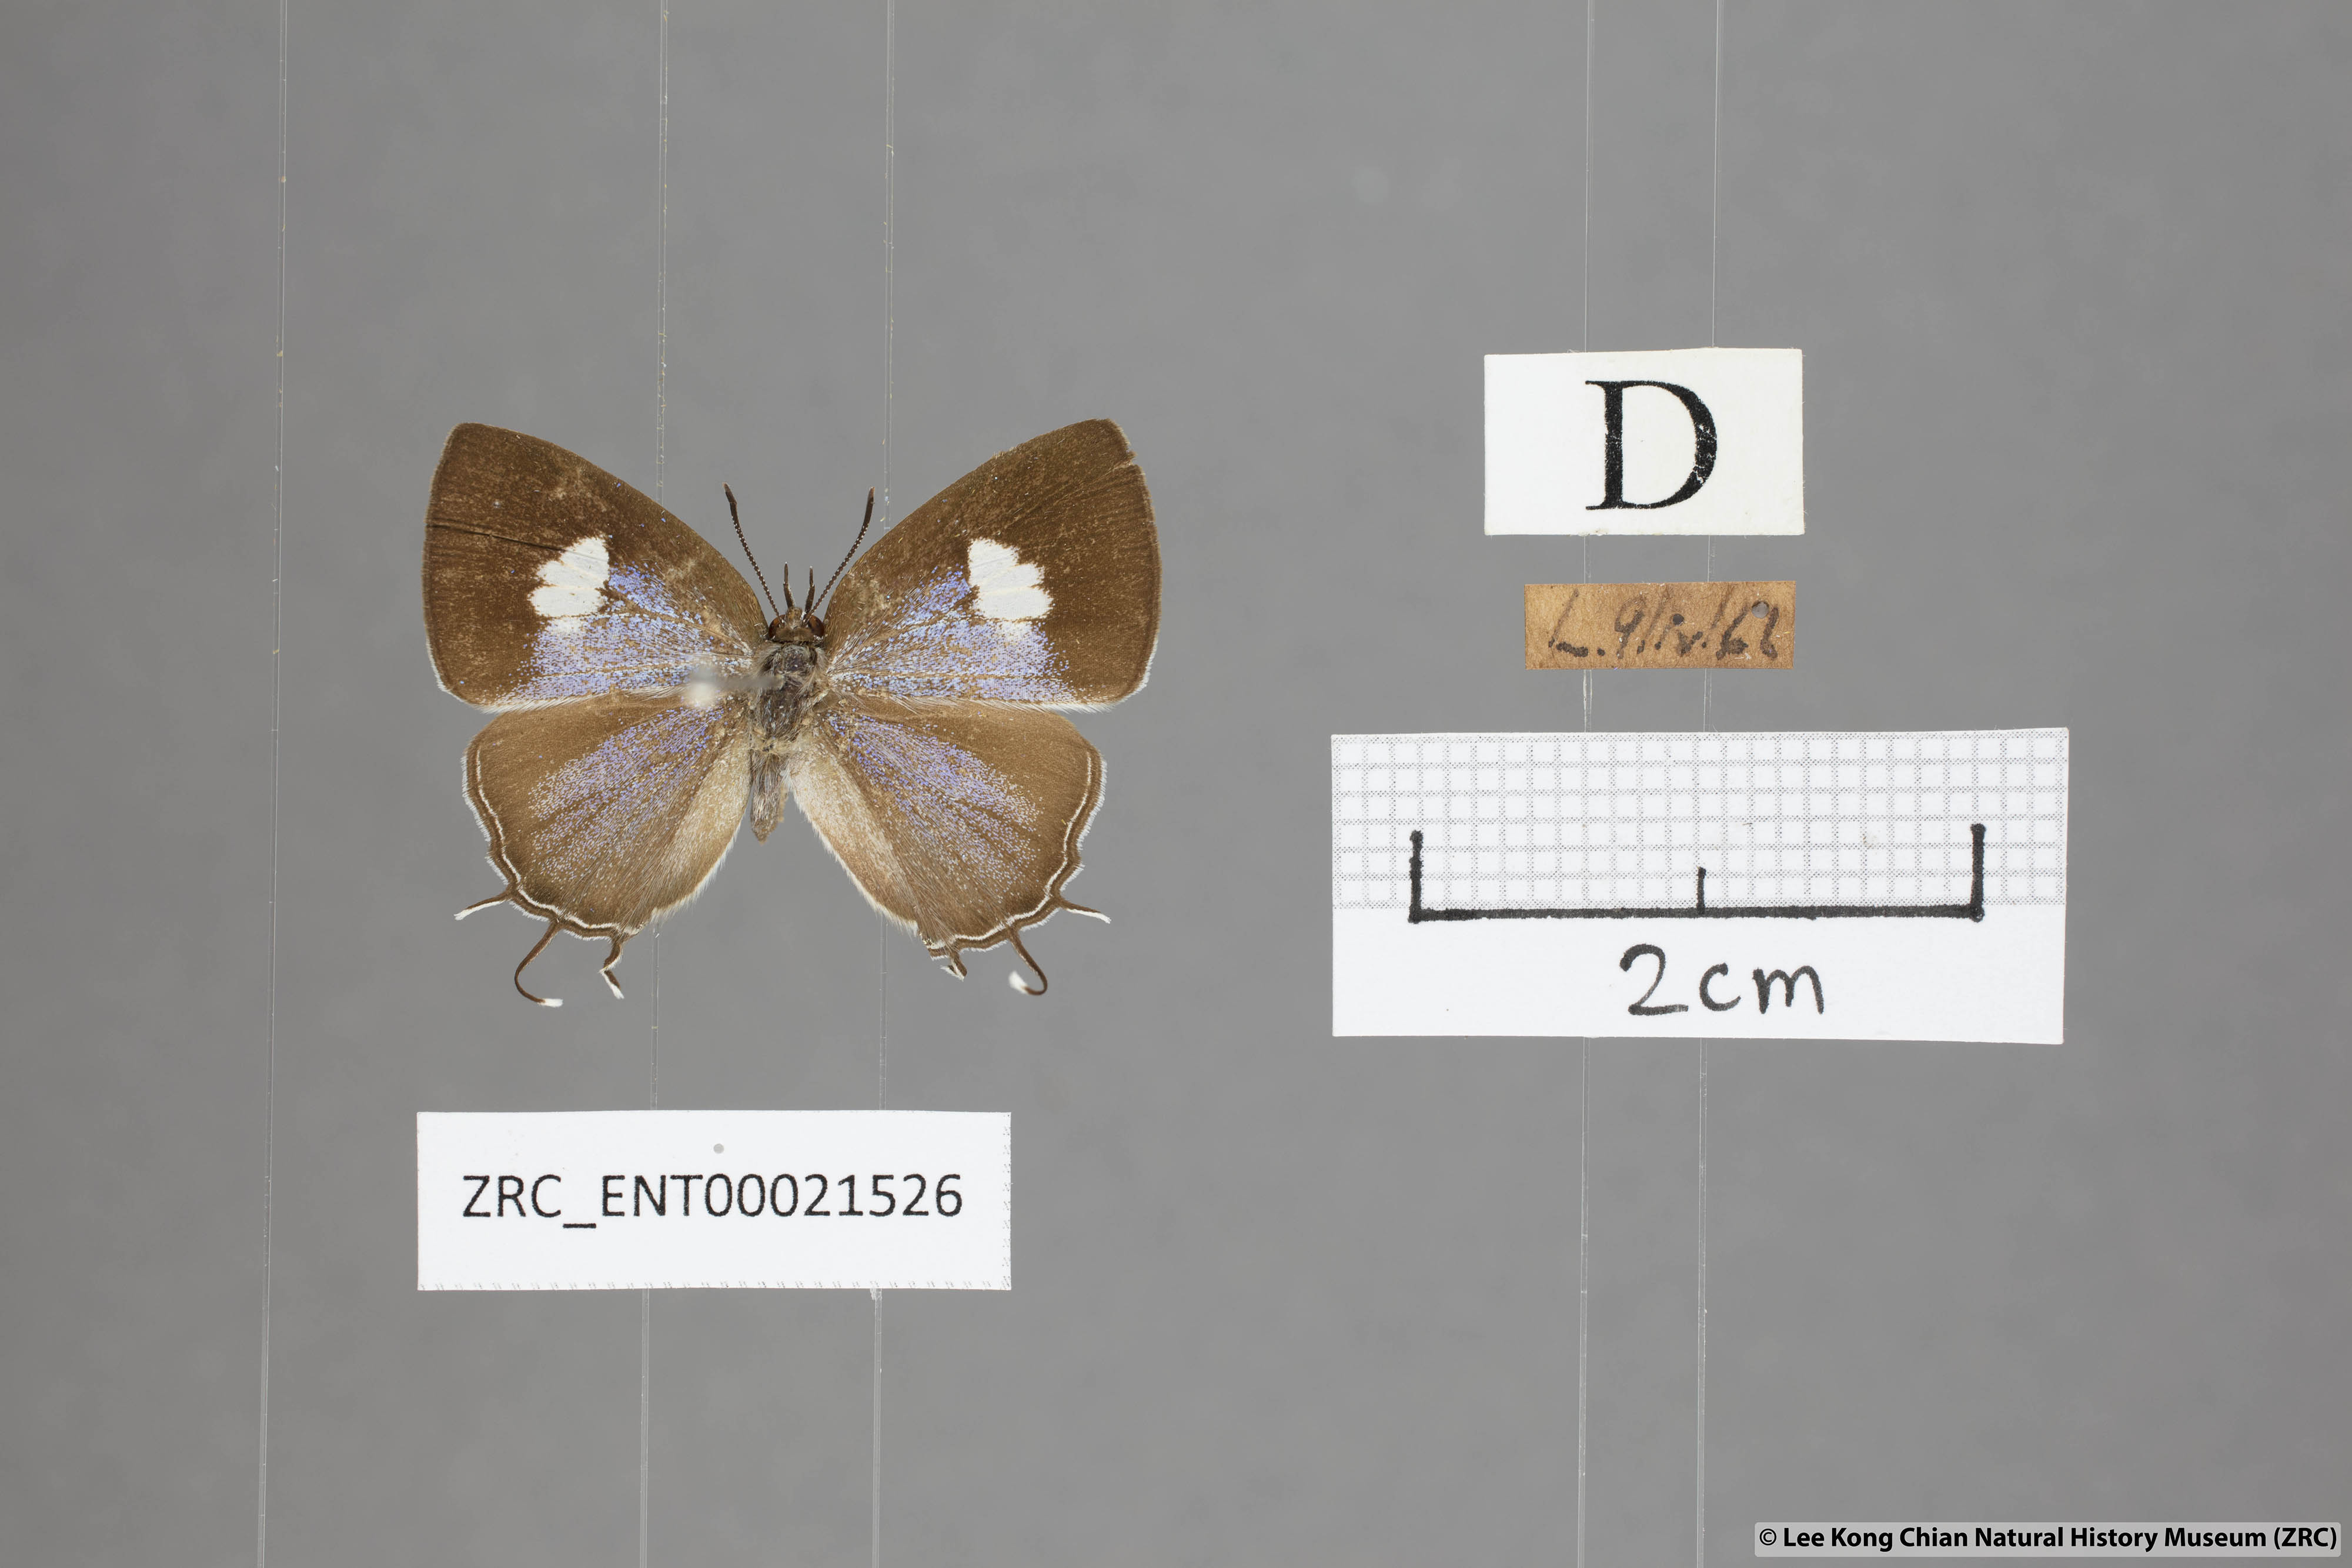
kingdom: Animalia
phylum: Arthropoda
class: Insecta
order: Lepidoptera
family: Lycaenidae
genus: Horaga
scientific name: Horaga syrinx
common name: Ambon onyx
